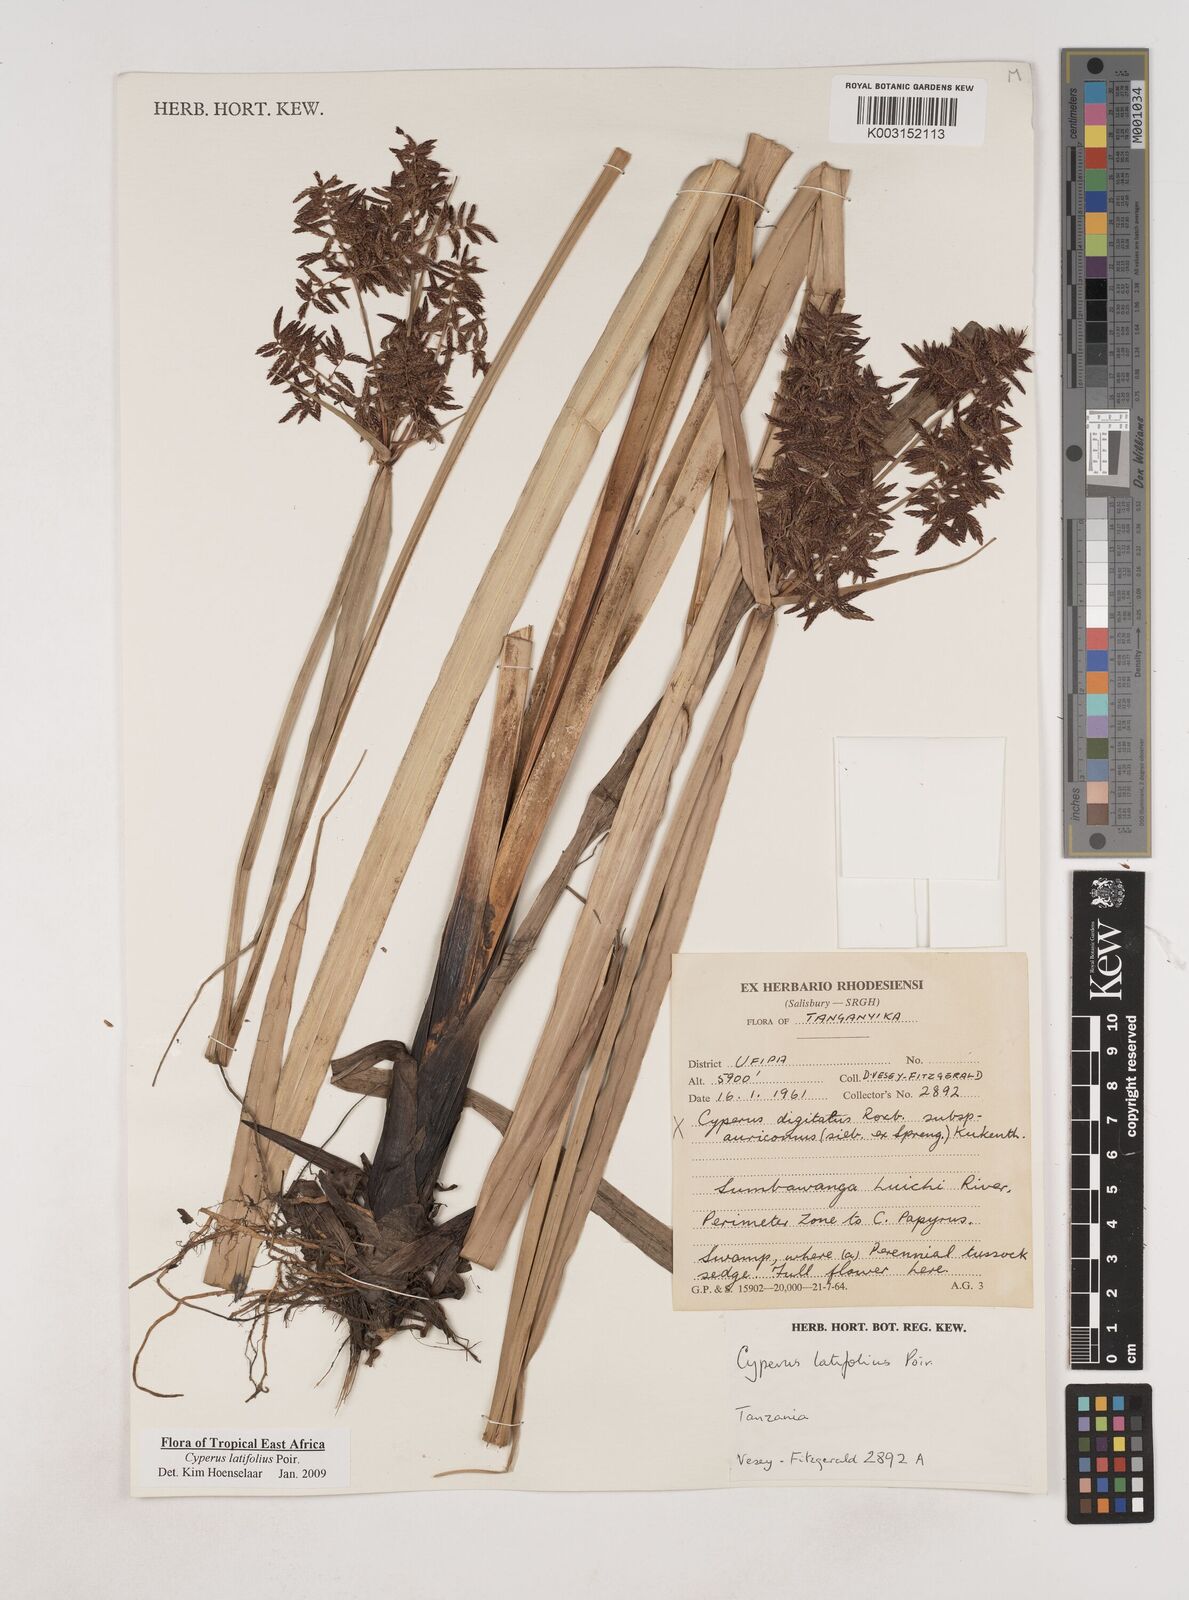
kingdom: Plantae
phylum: Tracheophyta
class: Liliopsida
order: Poales
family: Cyperaceae
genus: Cyperus
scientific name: Cyperus latifolius
